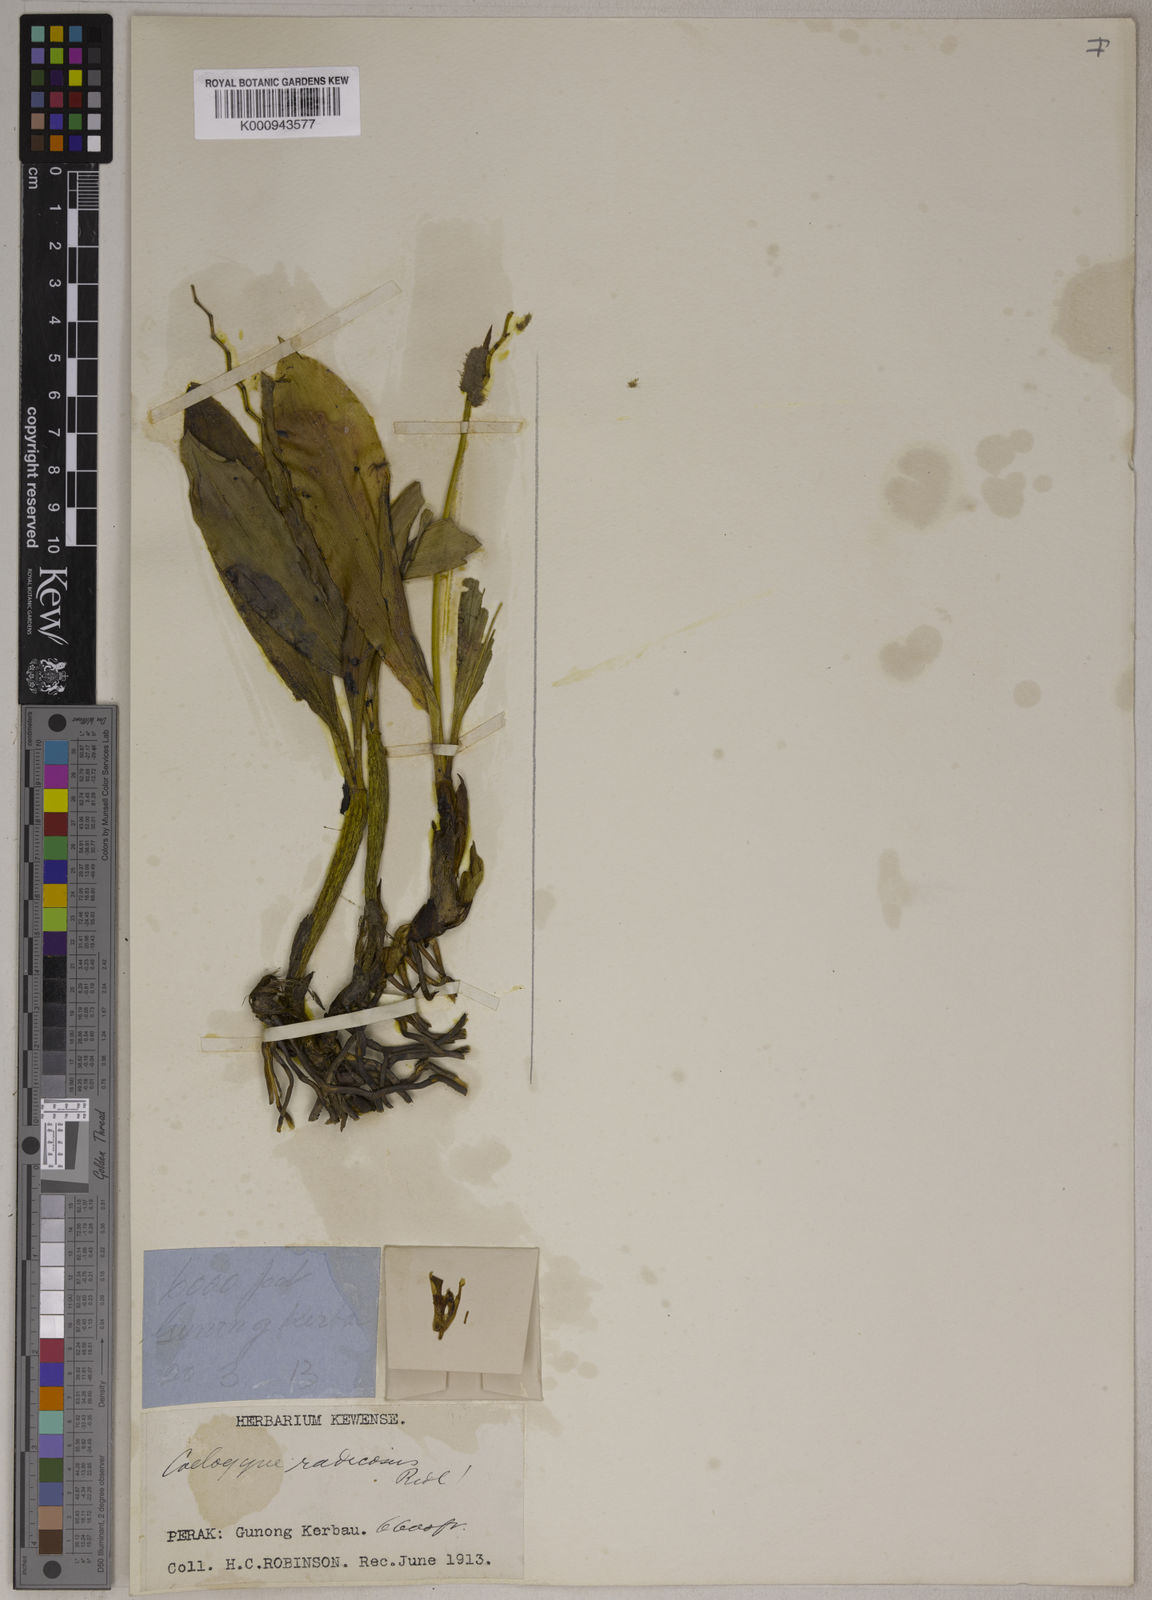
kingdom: Plantae
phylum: Tracheophyta
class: Liliopsida
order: Asparagales
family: Orchidaceae
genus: Coelogyne
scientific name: Coelogyne radicosa
